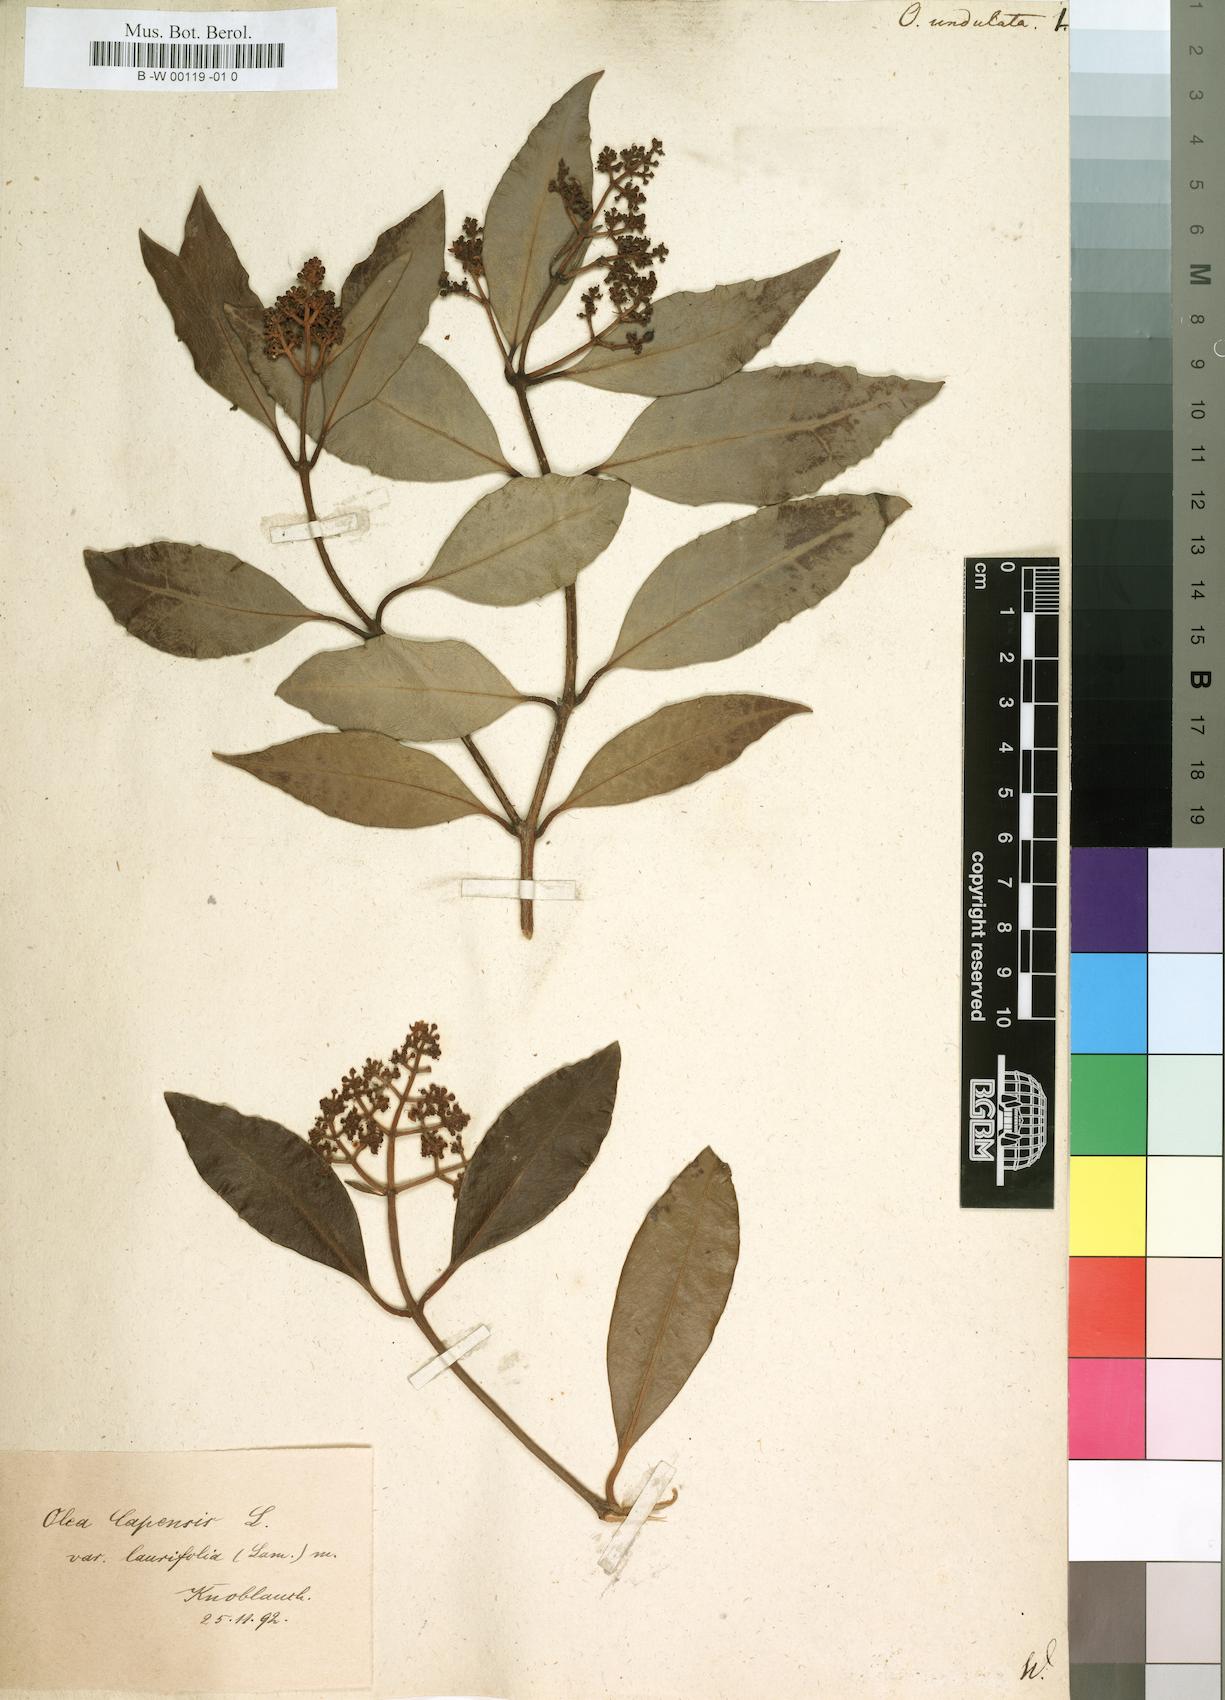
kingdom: Plantae
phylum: Tracheophyta
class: Magnoliopsida
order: Lamiales
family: Oleaceae
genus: Olea
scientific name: Olea capensis
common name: Black ironwood
